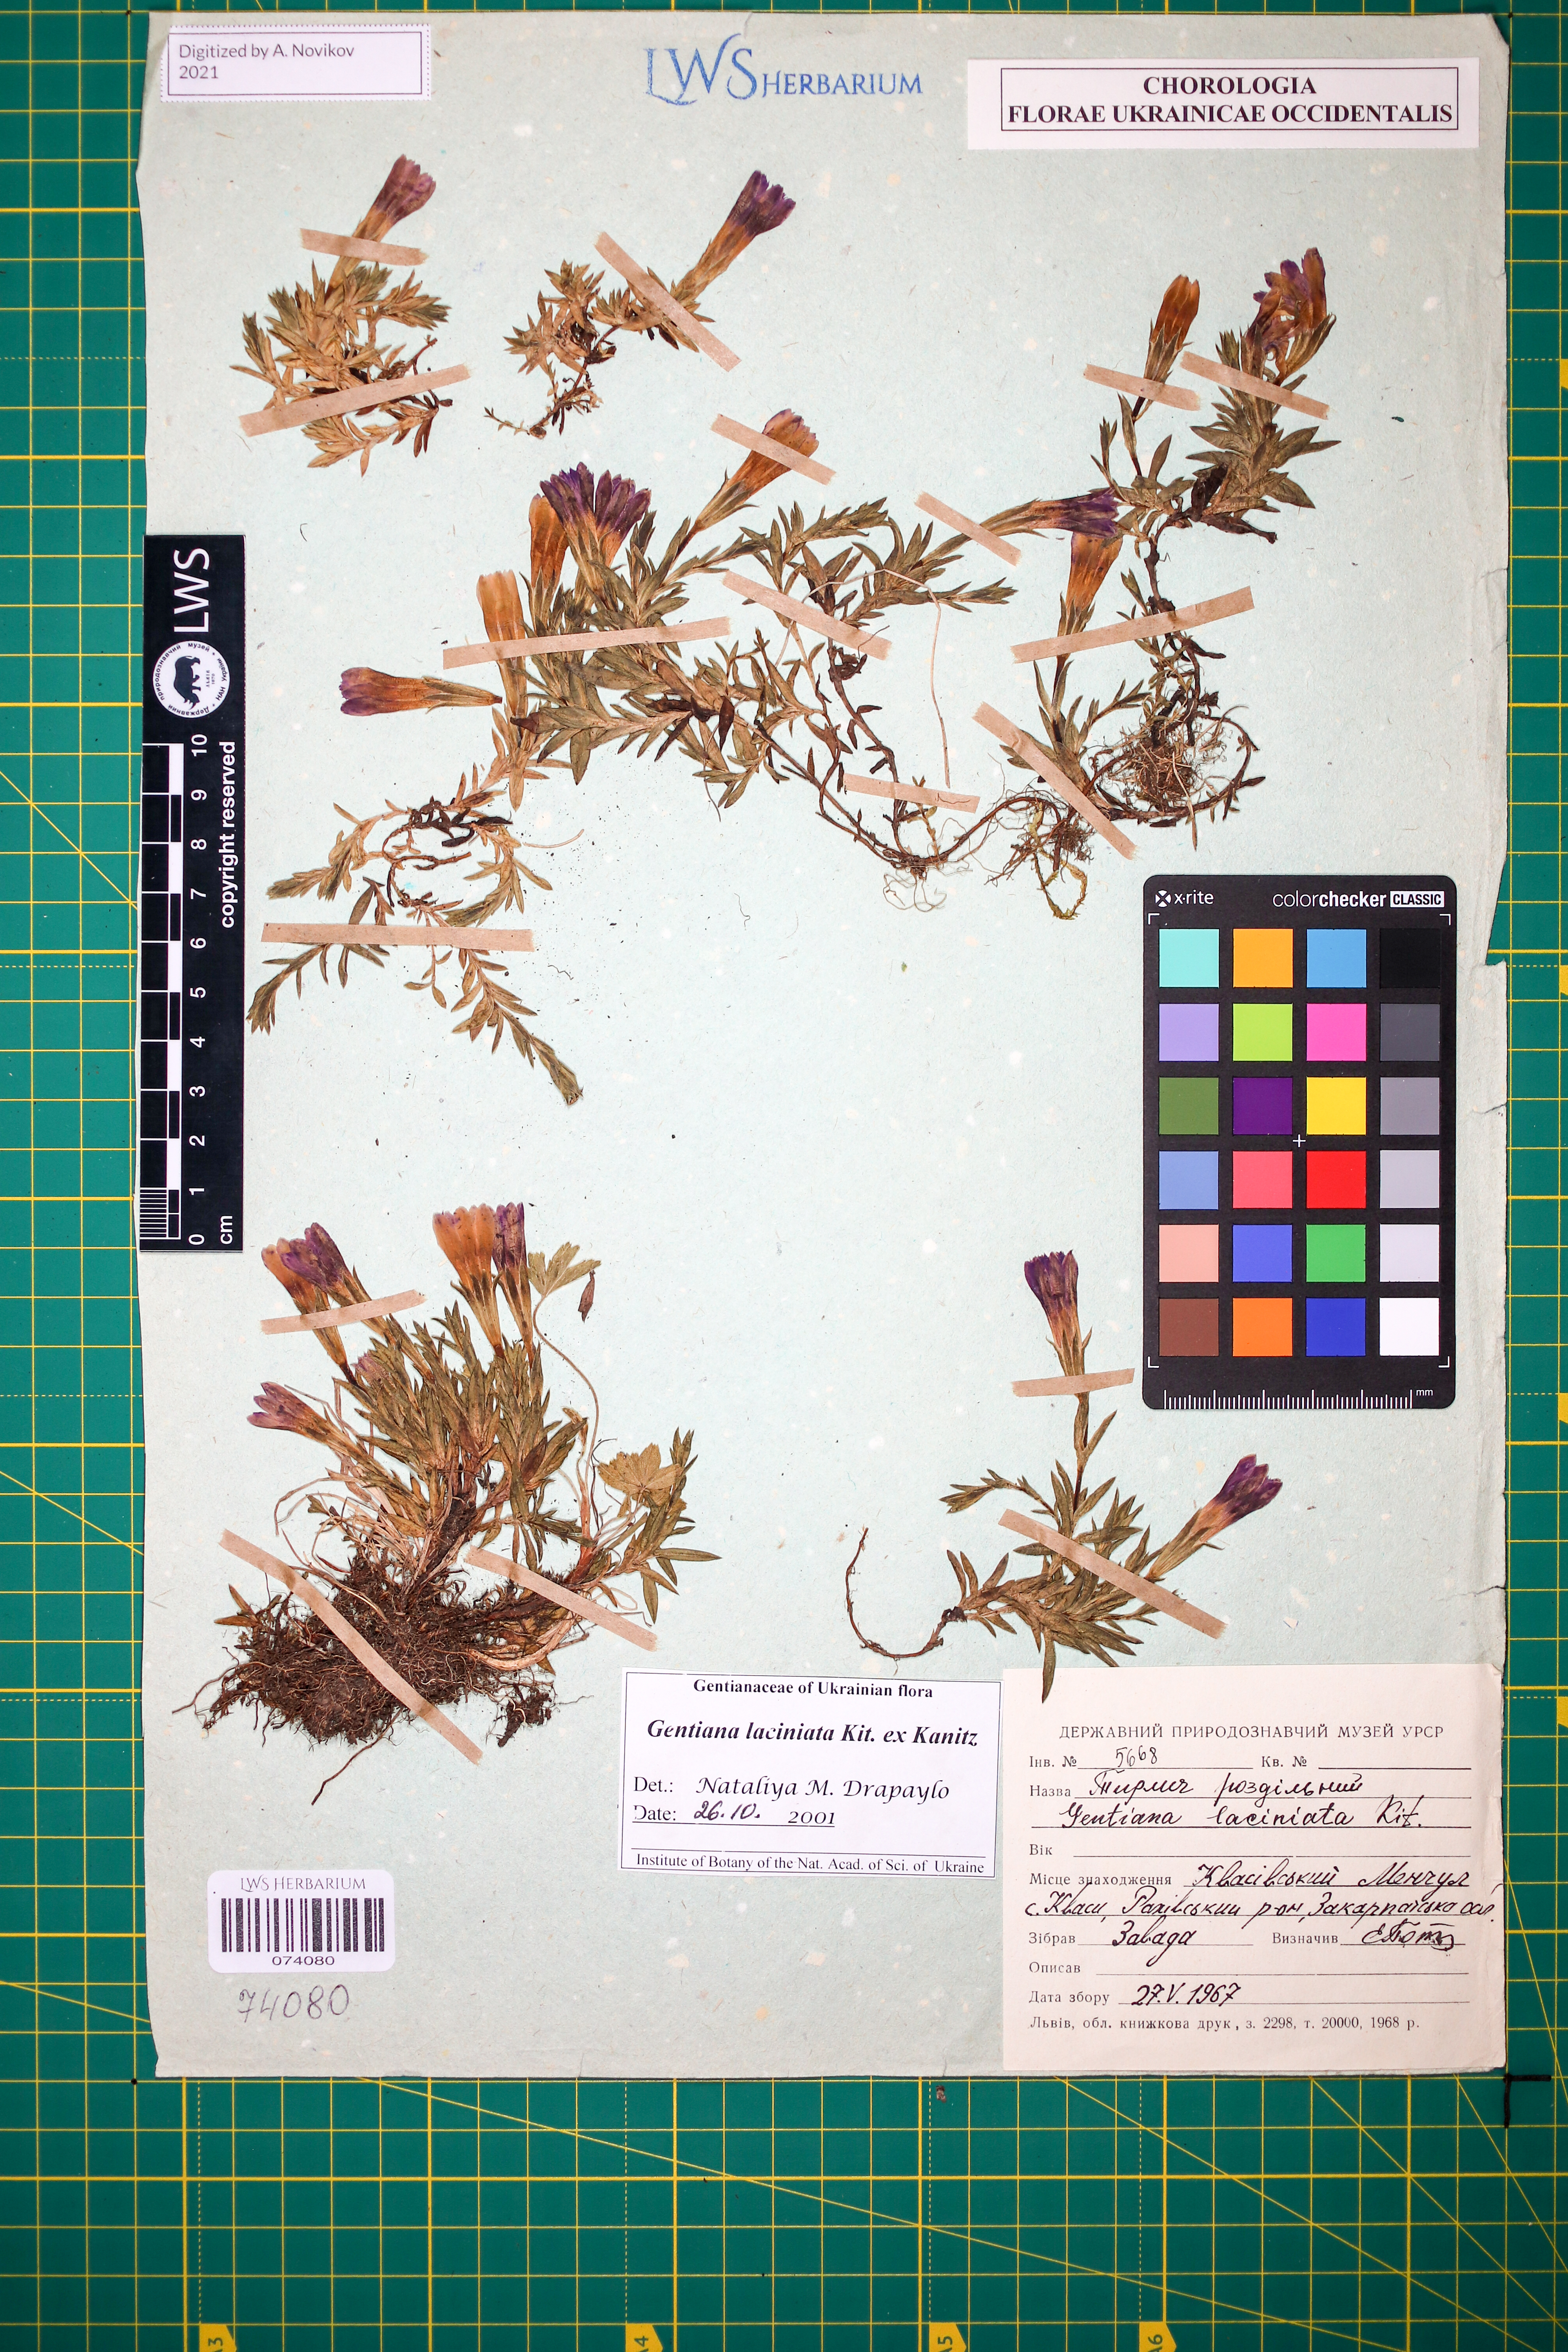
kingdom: Plantae
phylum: Tracheophyta
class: Magnoliopsida
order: Gentianales
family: Gentianaceae
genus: Gentiana
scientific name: Gentiana laciniata
